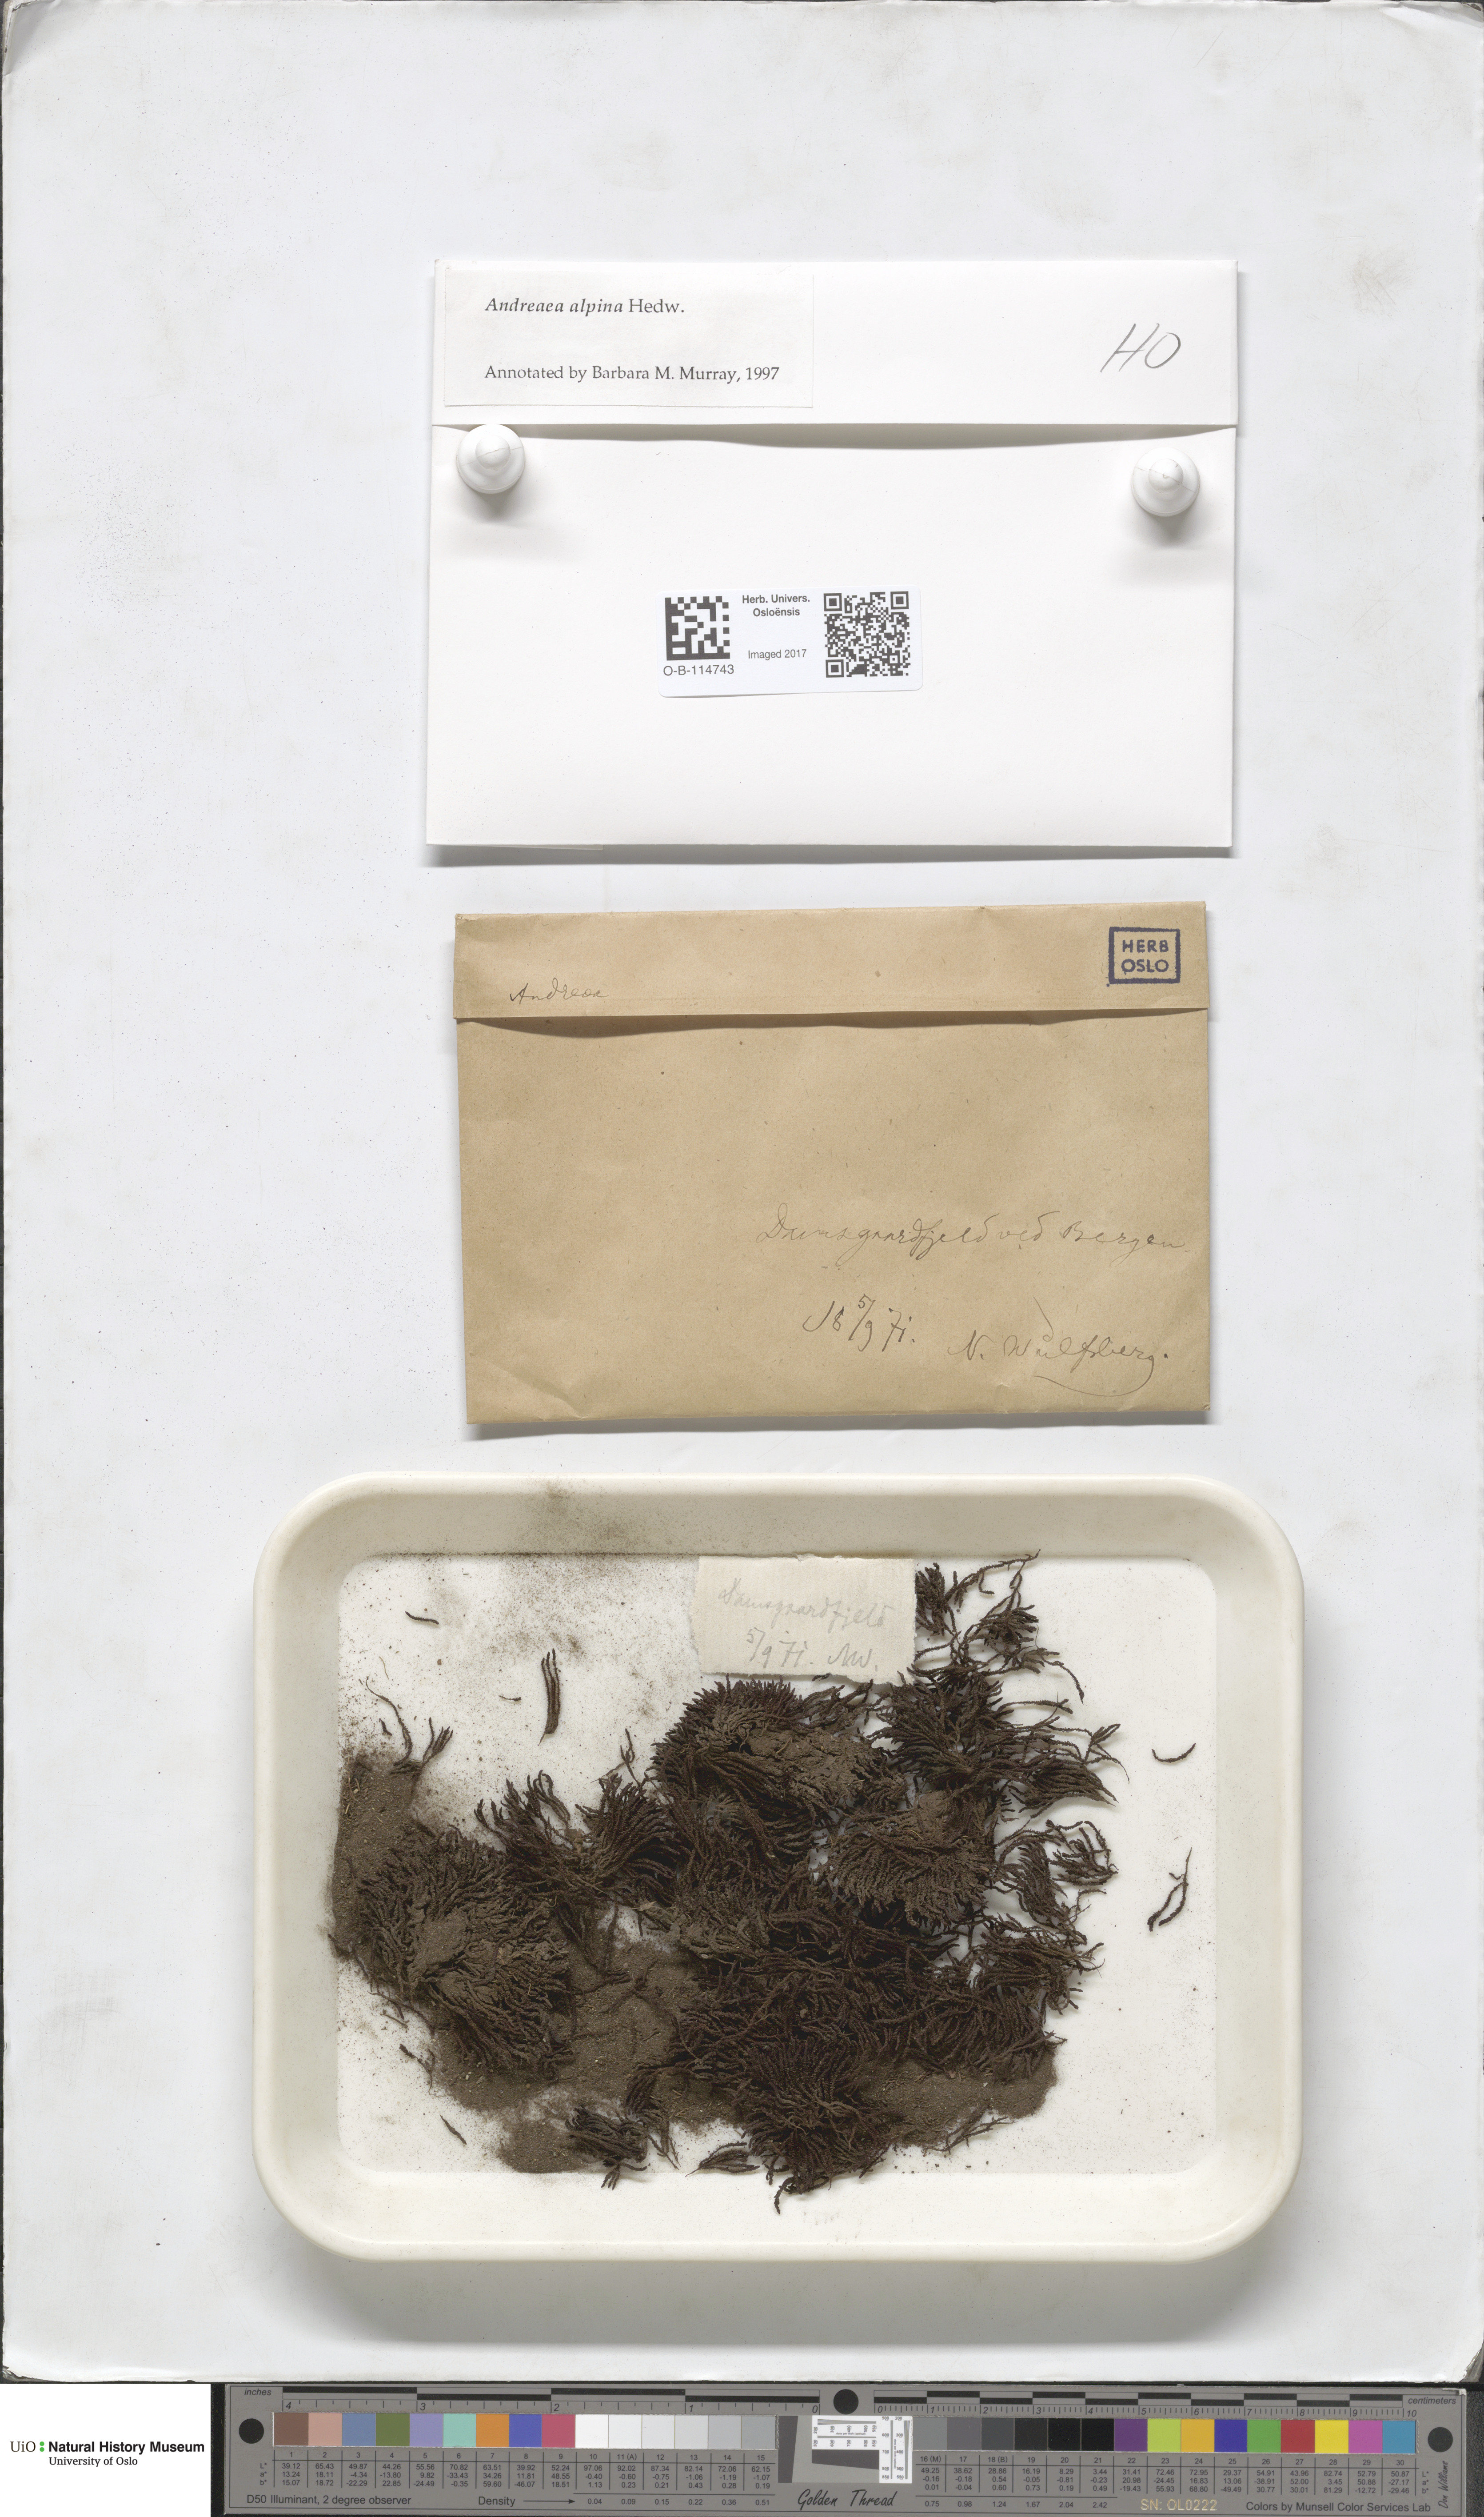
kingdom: Plantae
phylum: Bryophyta
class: Andreaeopsida
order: Andreaeales
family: Andreaeaceae
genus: Andreaea
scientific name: Andreaea hookeri
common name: Alpine rock-moss
